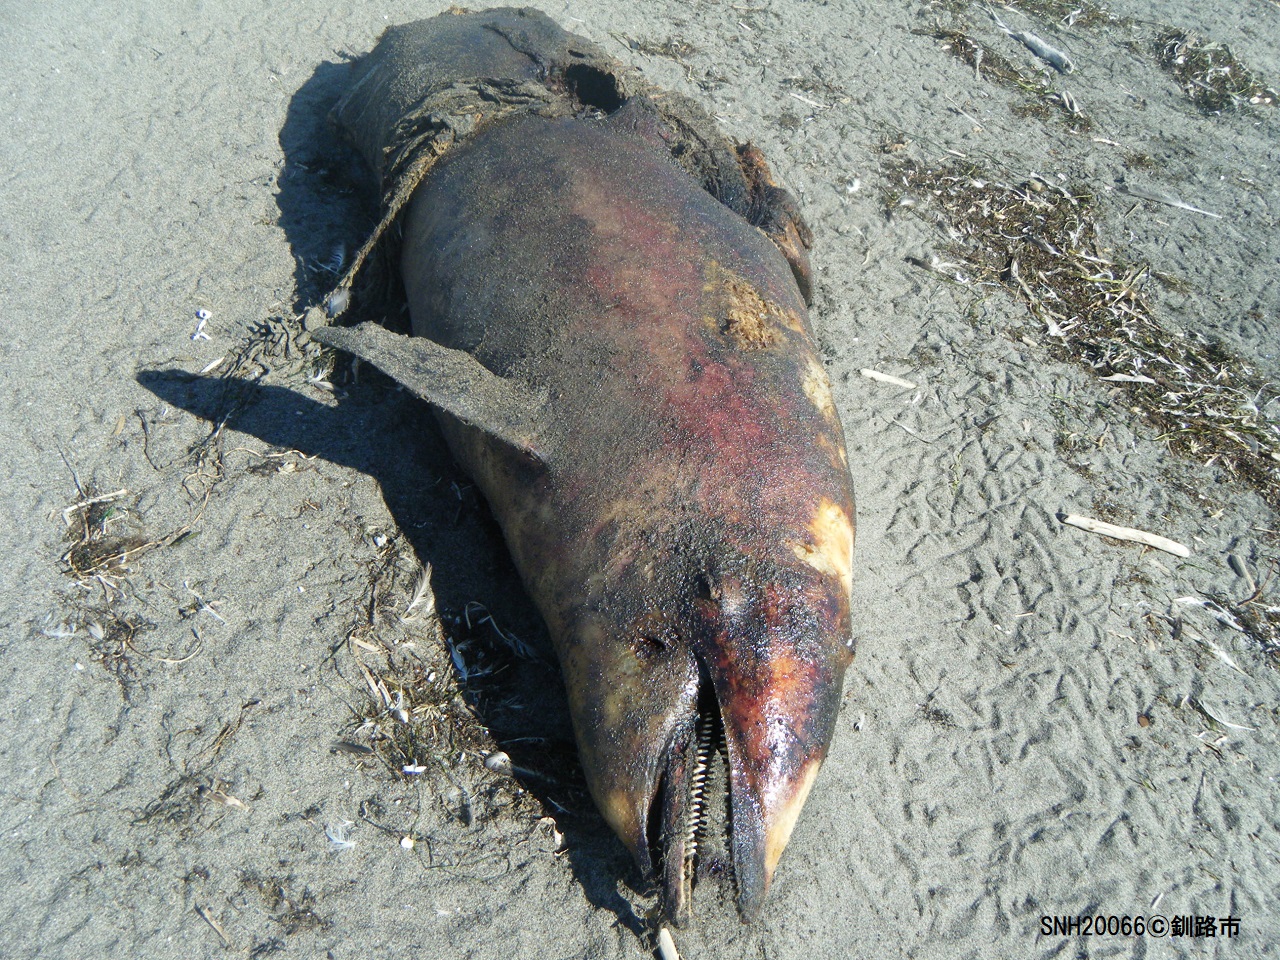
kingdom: Animalia
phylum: Chordata
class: Mammalia
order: Cetacea
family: Delphinidae
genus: Lagenorhynchus
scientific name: Lagenorhynchus obliquidens
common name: Pacific white-sided dolphin
